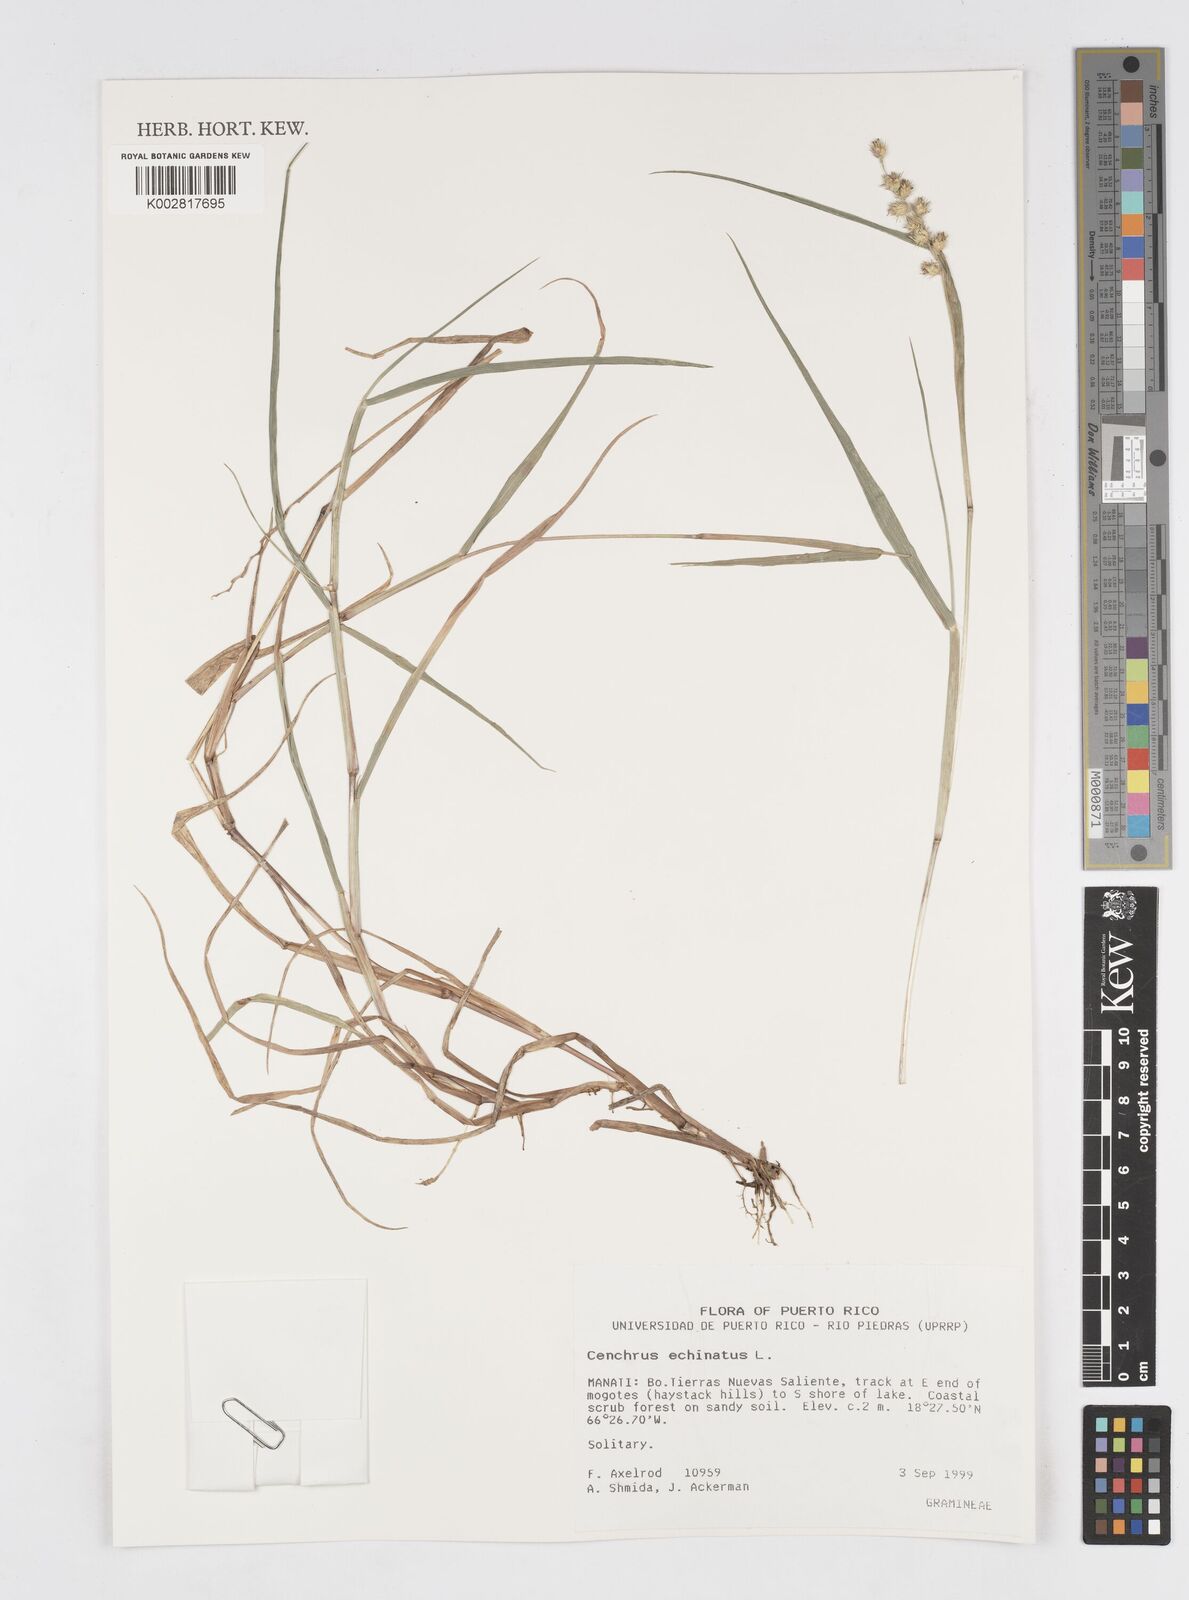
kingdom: Plantae
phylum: Tracheophyta
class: Liliopsida
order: Poales
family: Poaceae
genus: Cenchrus
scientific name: Cenchrus
